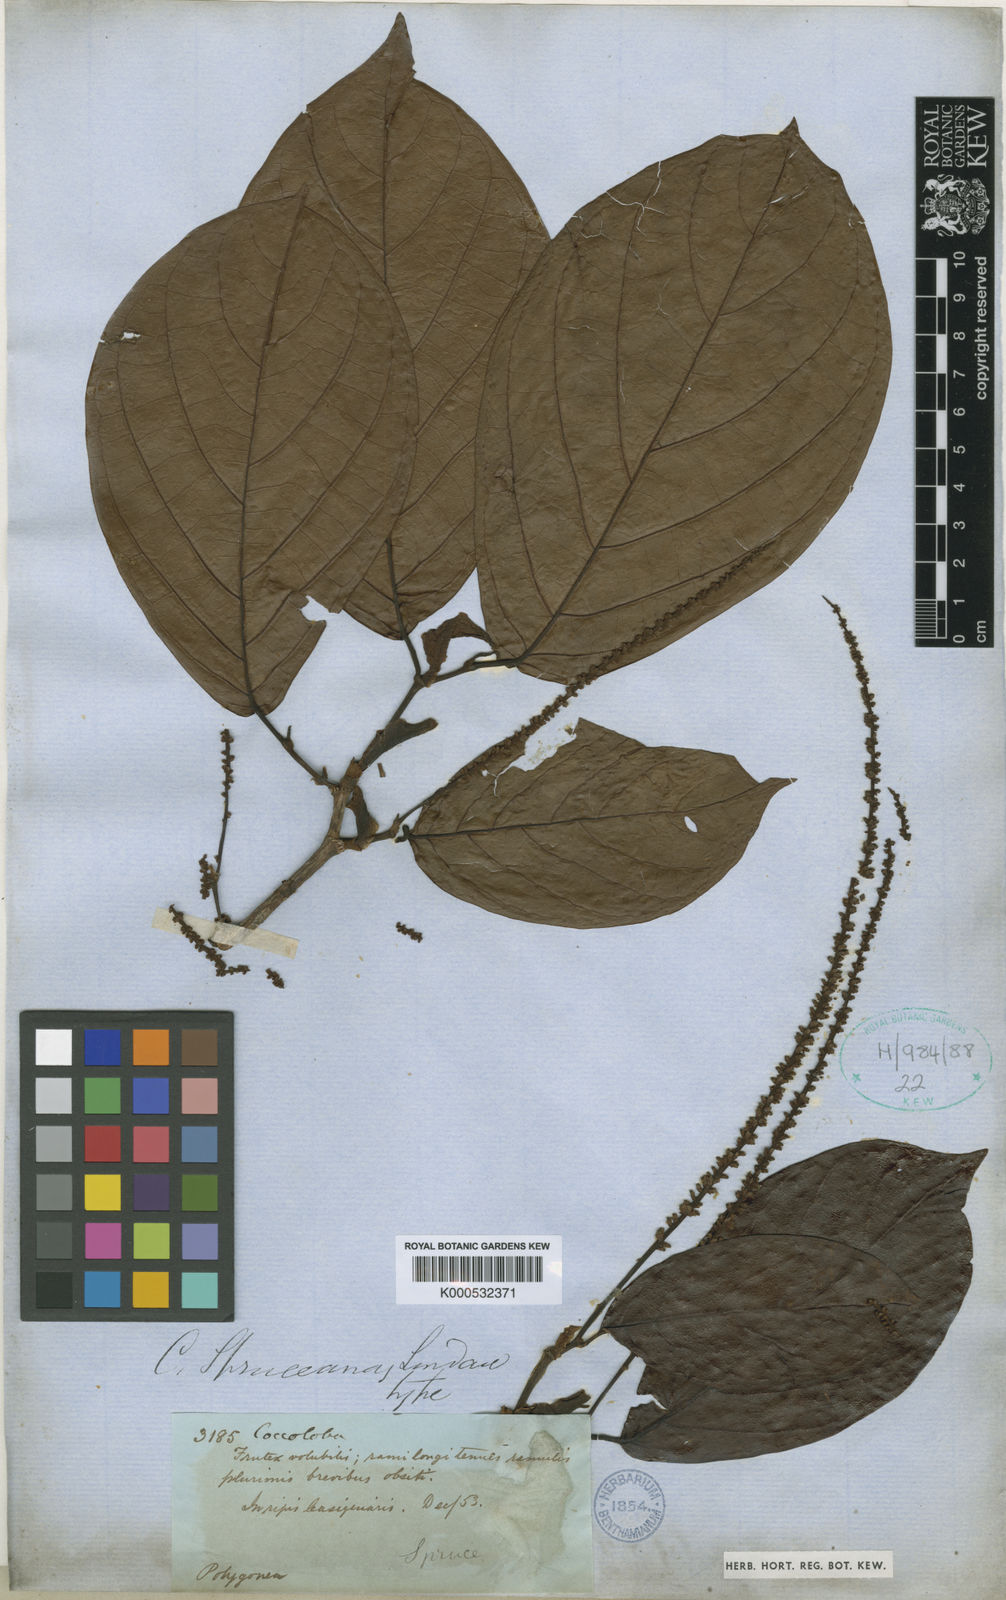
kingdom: Plantae
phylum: Tracheophyta
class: Magnoliopsida
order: Caryophyllales
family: Polygonaceae
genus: Coccoloba
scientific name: Coccoloba spruceana
